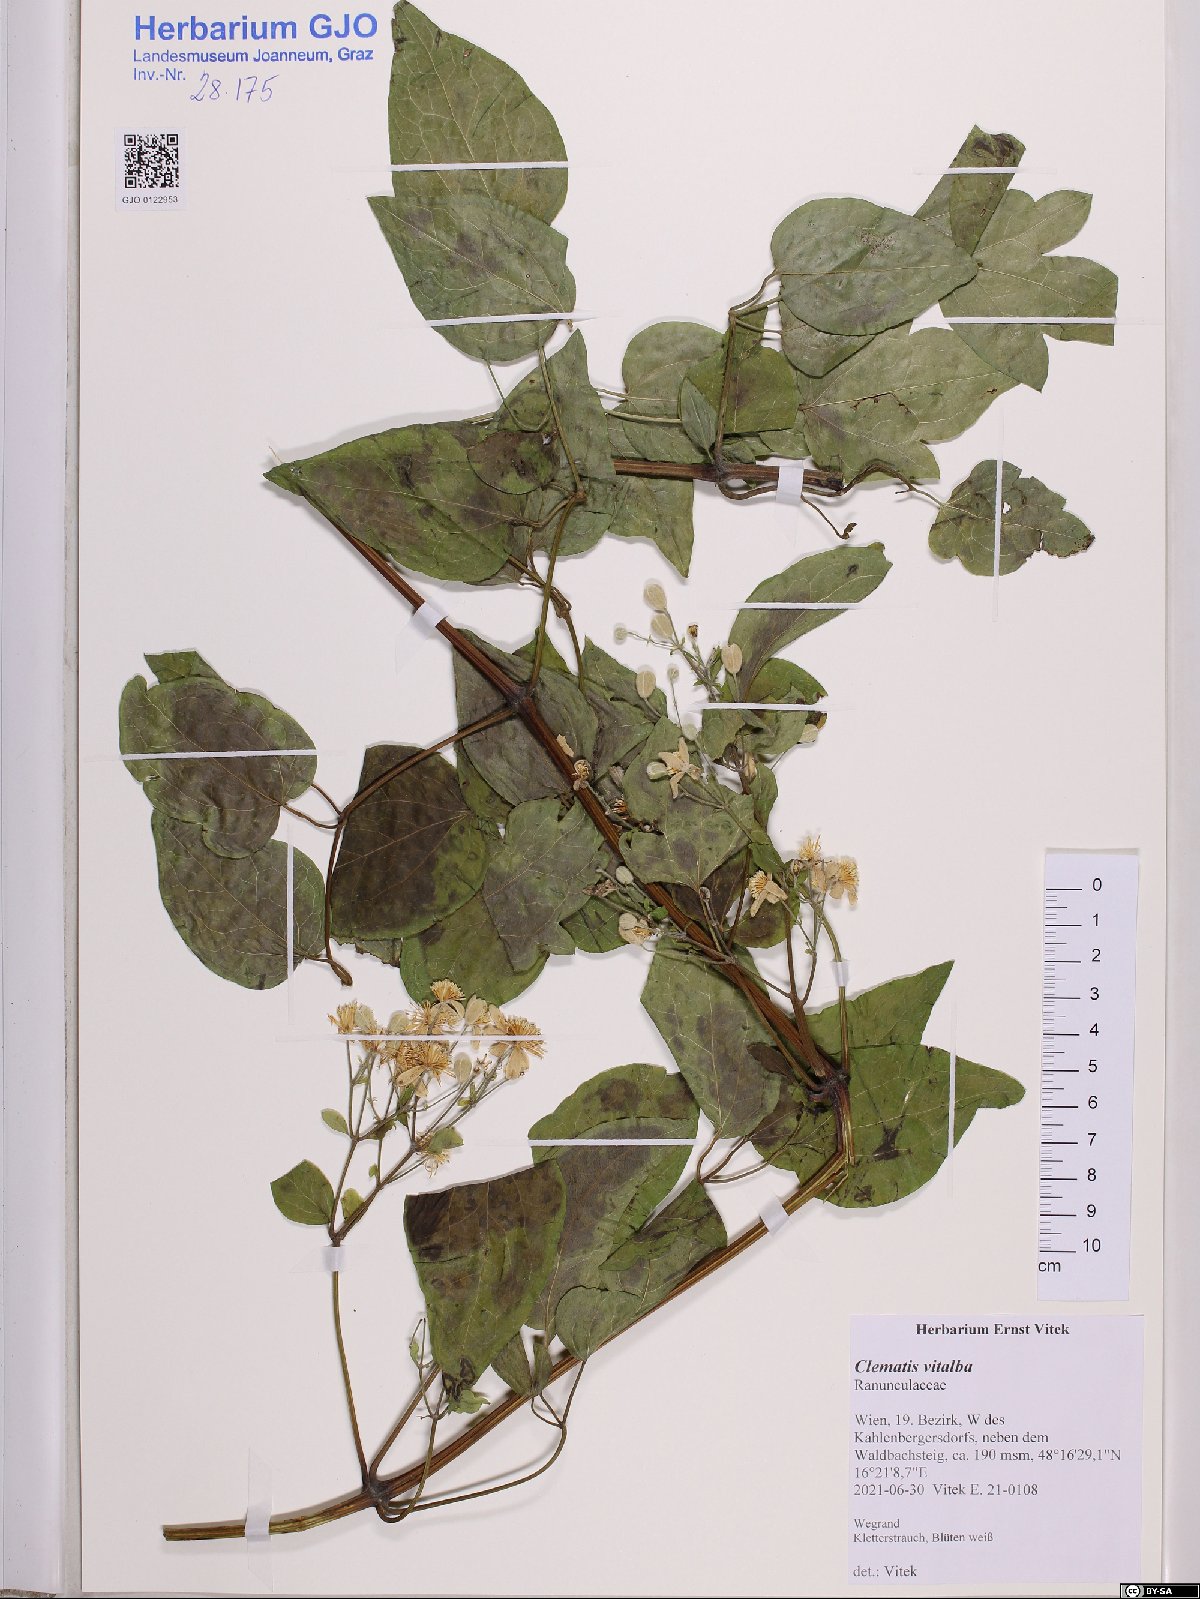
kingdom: Plantae
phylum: Tracheophyta
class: Magnoliopsida
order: Ranunculales
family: Ranunculaceae
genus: Clematis
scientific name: Clematis vitalba
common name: Evergreen clematis
